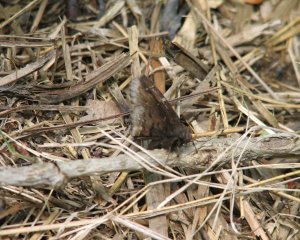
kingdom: Animalia
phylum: Arthropoda
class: Insecta
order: Lepidoptera
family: Hesperiidae
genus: Autochton
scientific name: Autochton
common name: Northern Cloudywing
